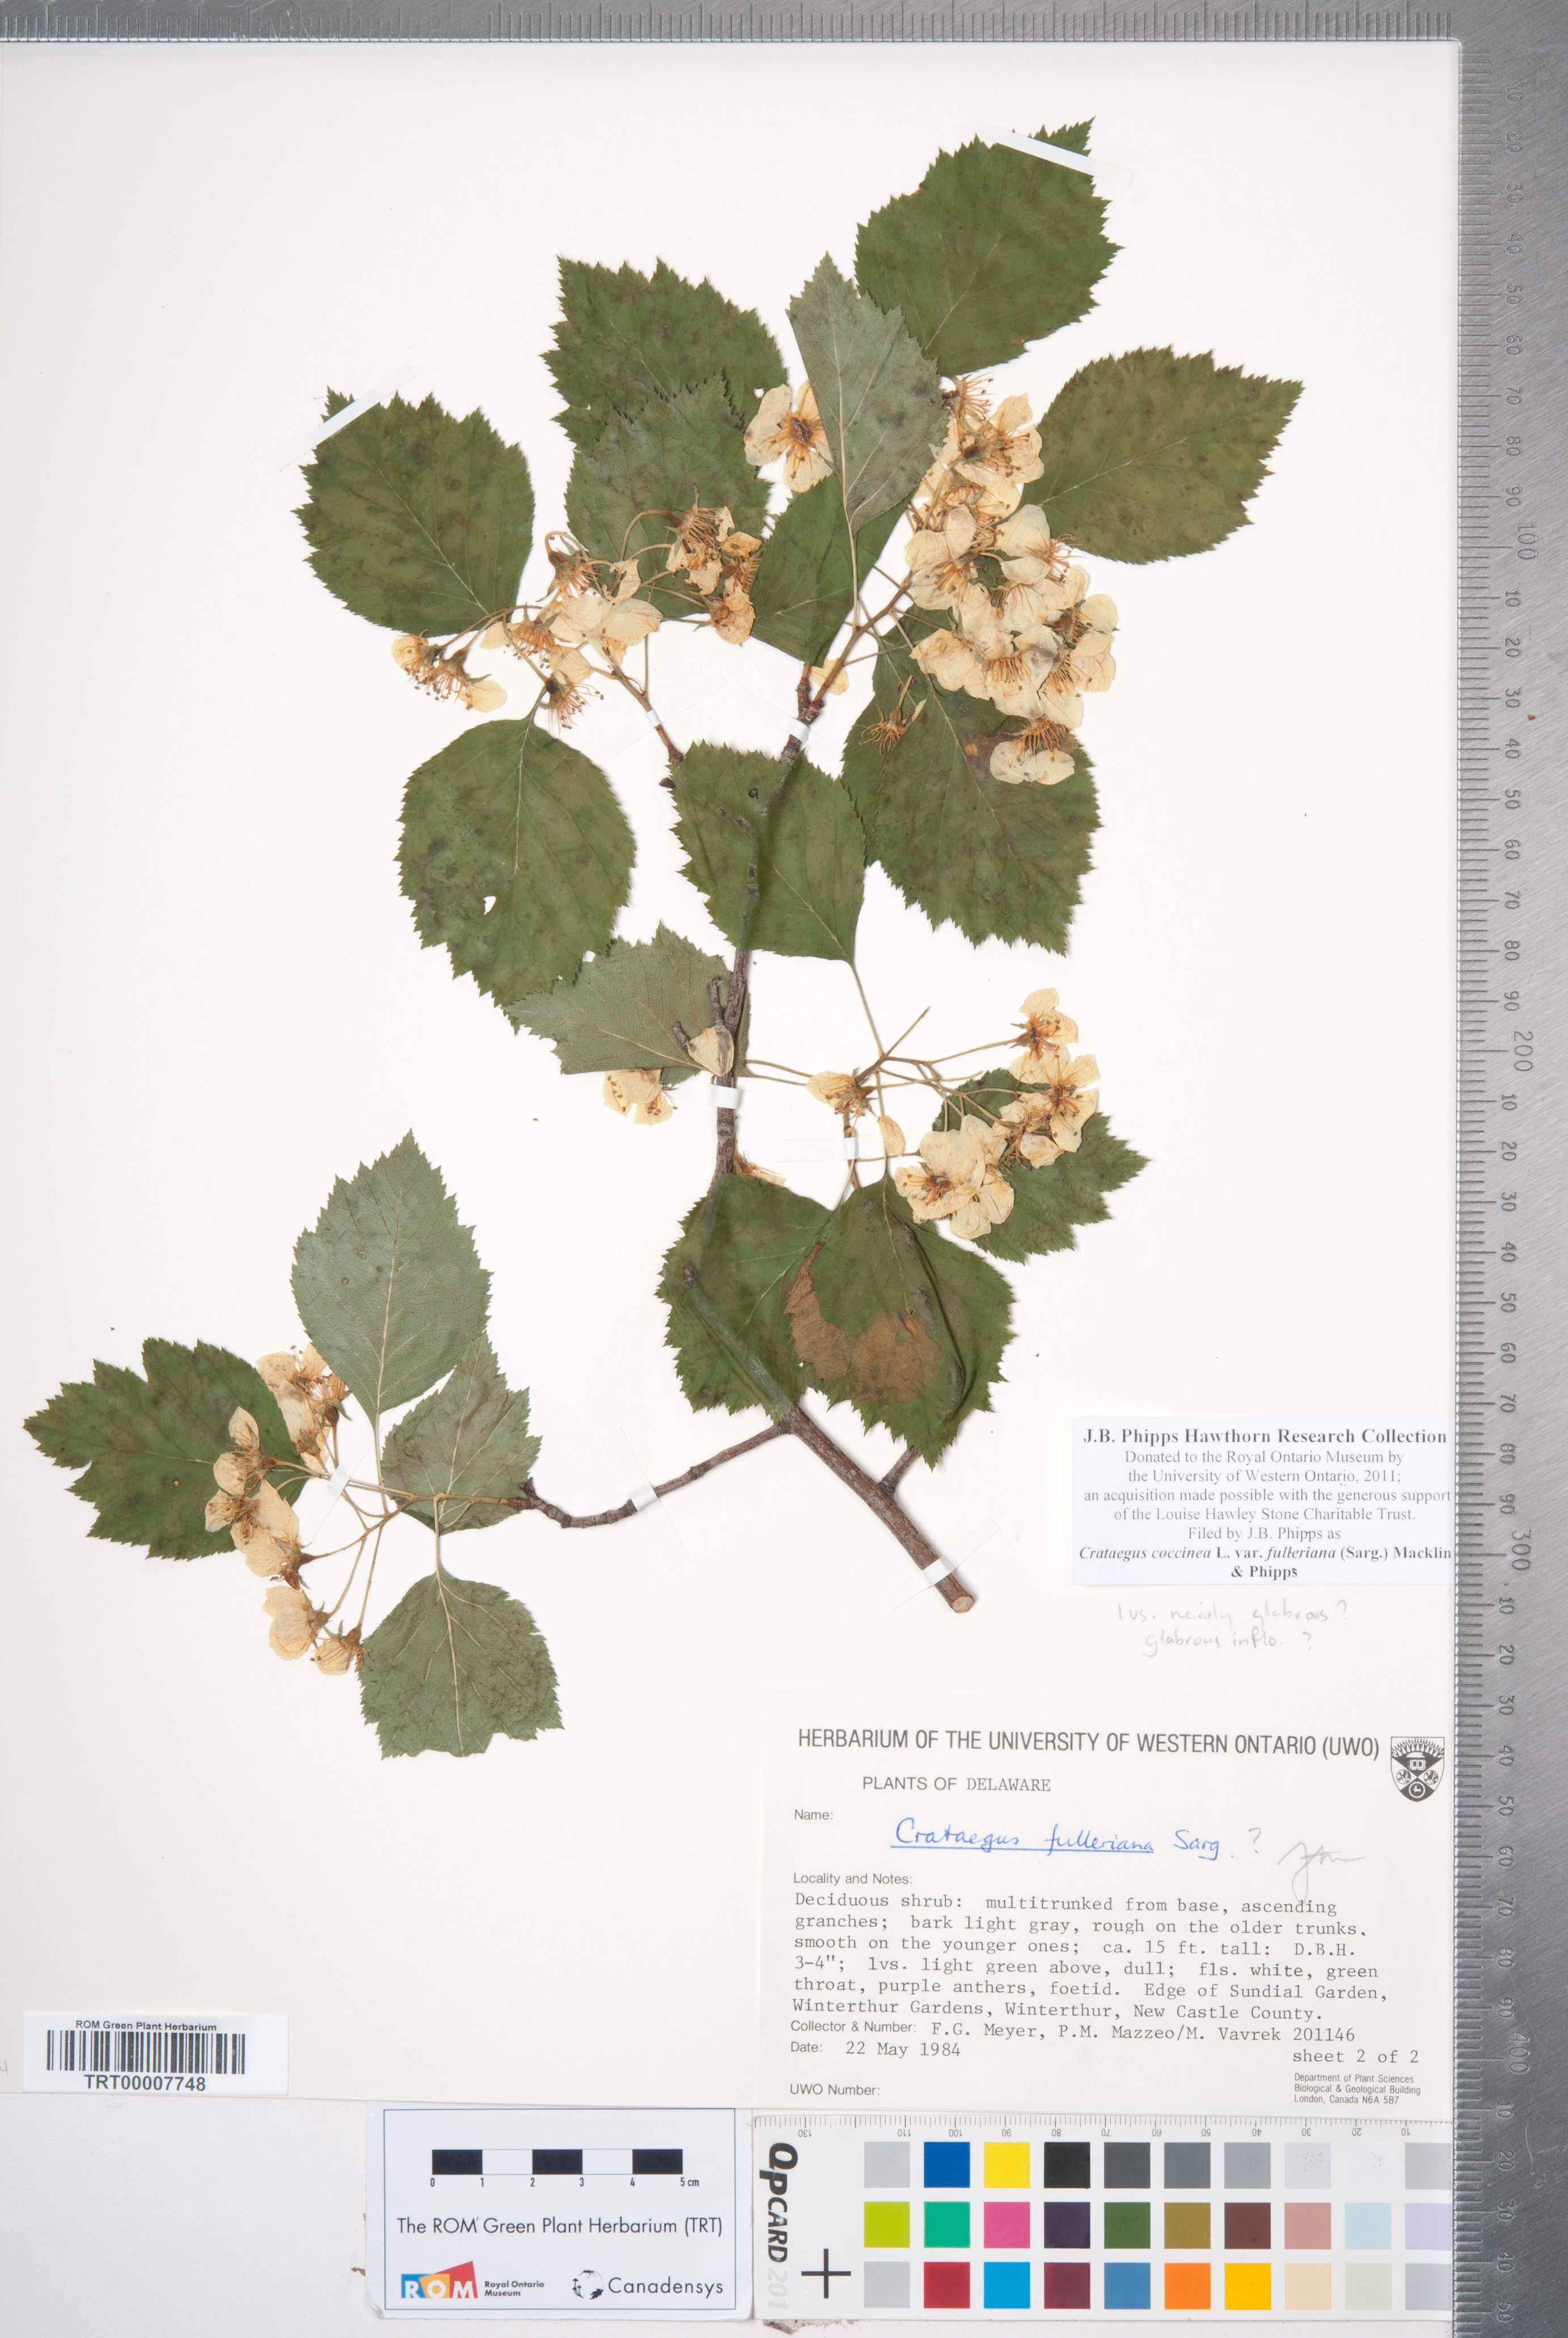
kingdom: Plantae
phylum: Tracheophyta
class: Magnoliopsida
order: Rosales
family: Rosaceae
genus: Crataegus
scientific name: Crataegus coccinea
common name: Scarlet hawthorn
